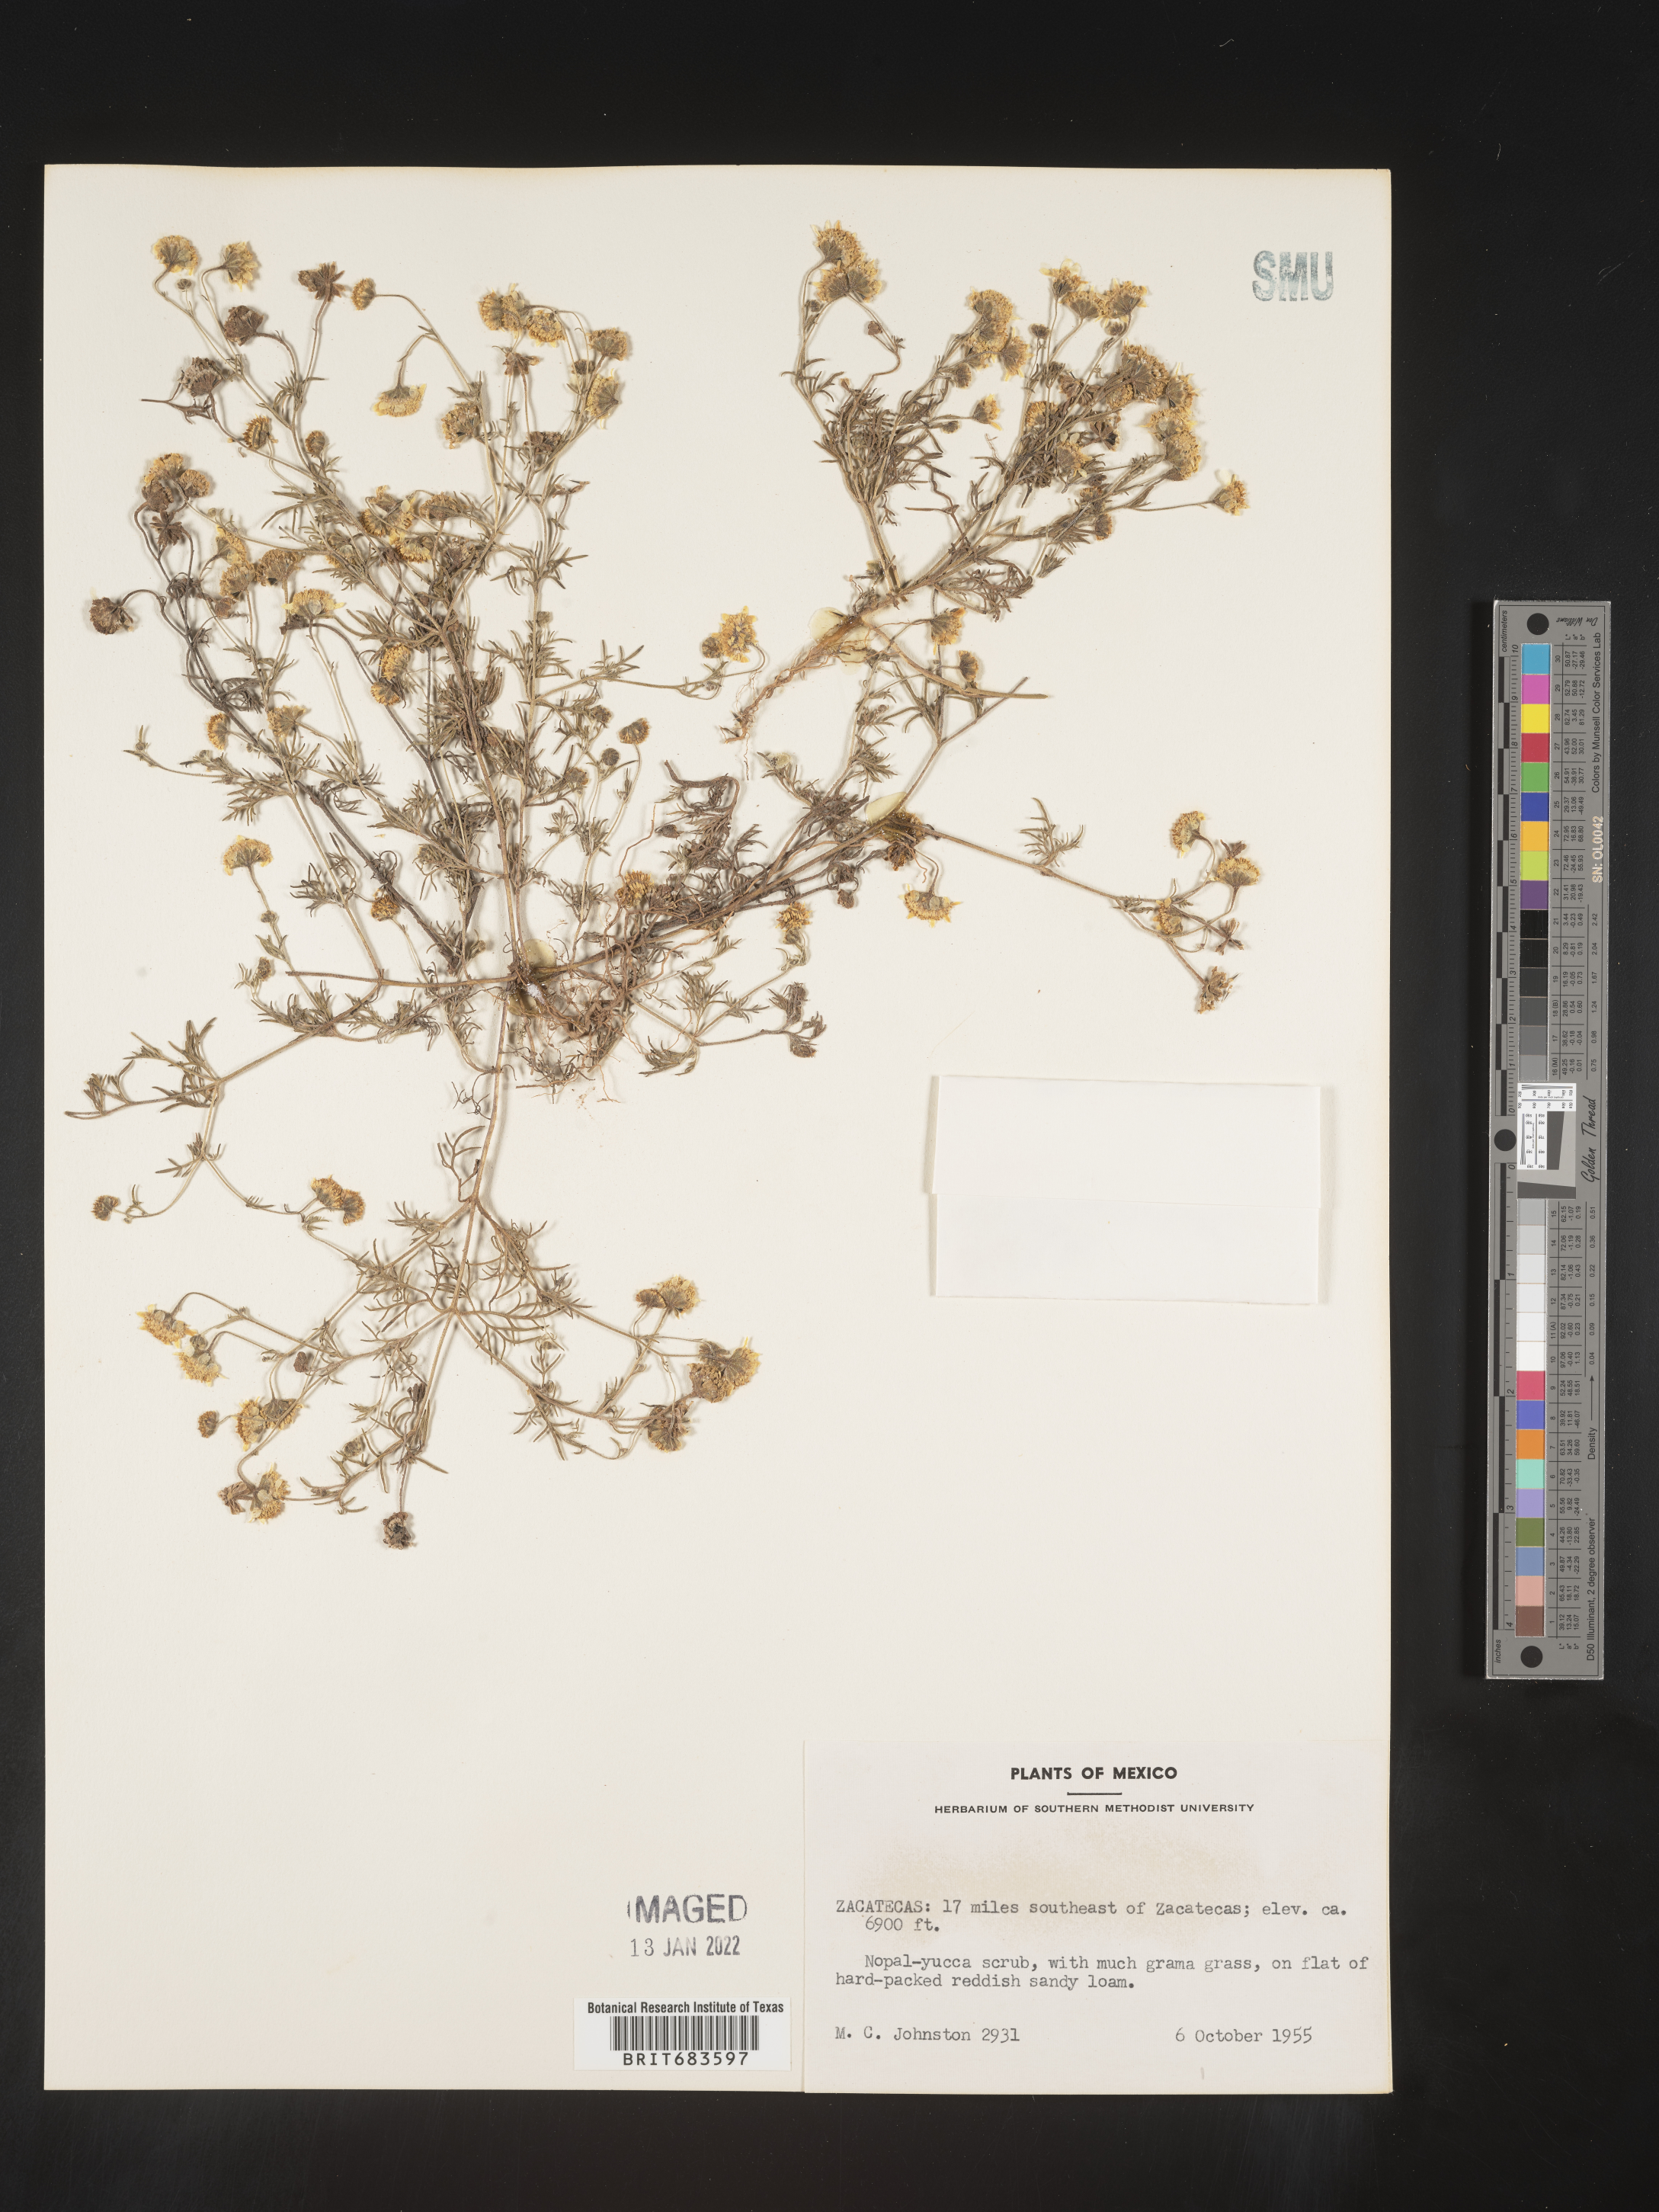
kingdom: Plantae
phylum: Tracheophyta
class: Magnoliopsida
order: Asterales
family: Asteraceae
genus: Bahia
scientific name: Bahia
